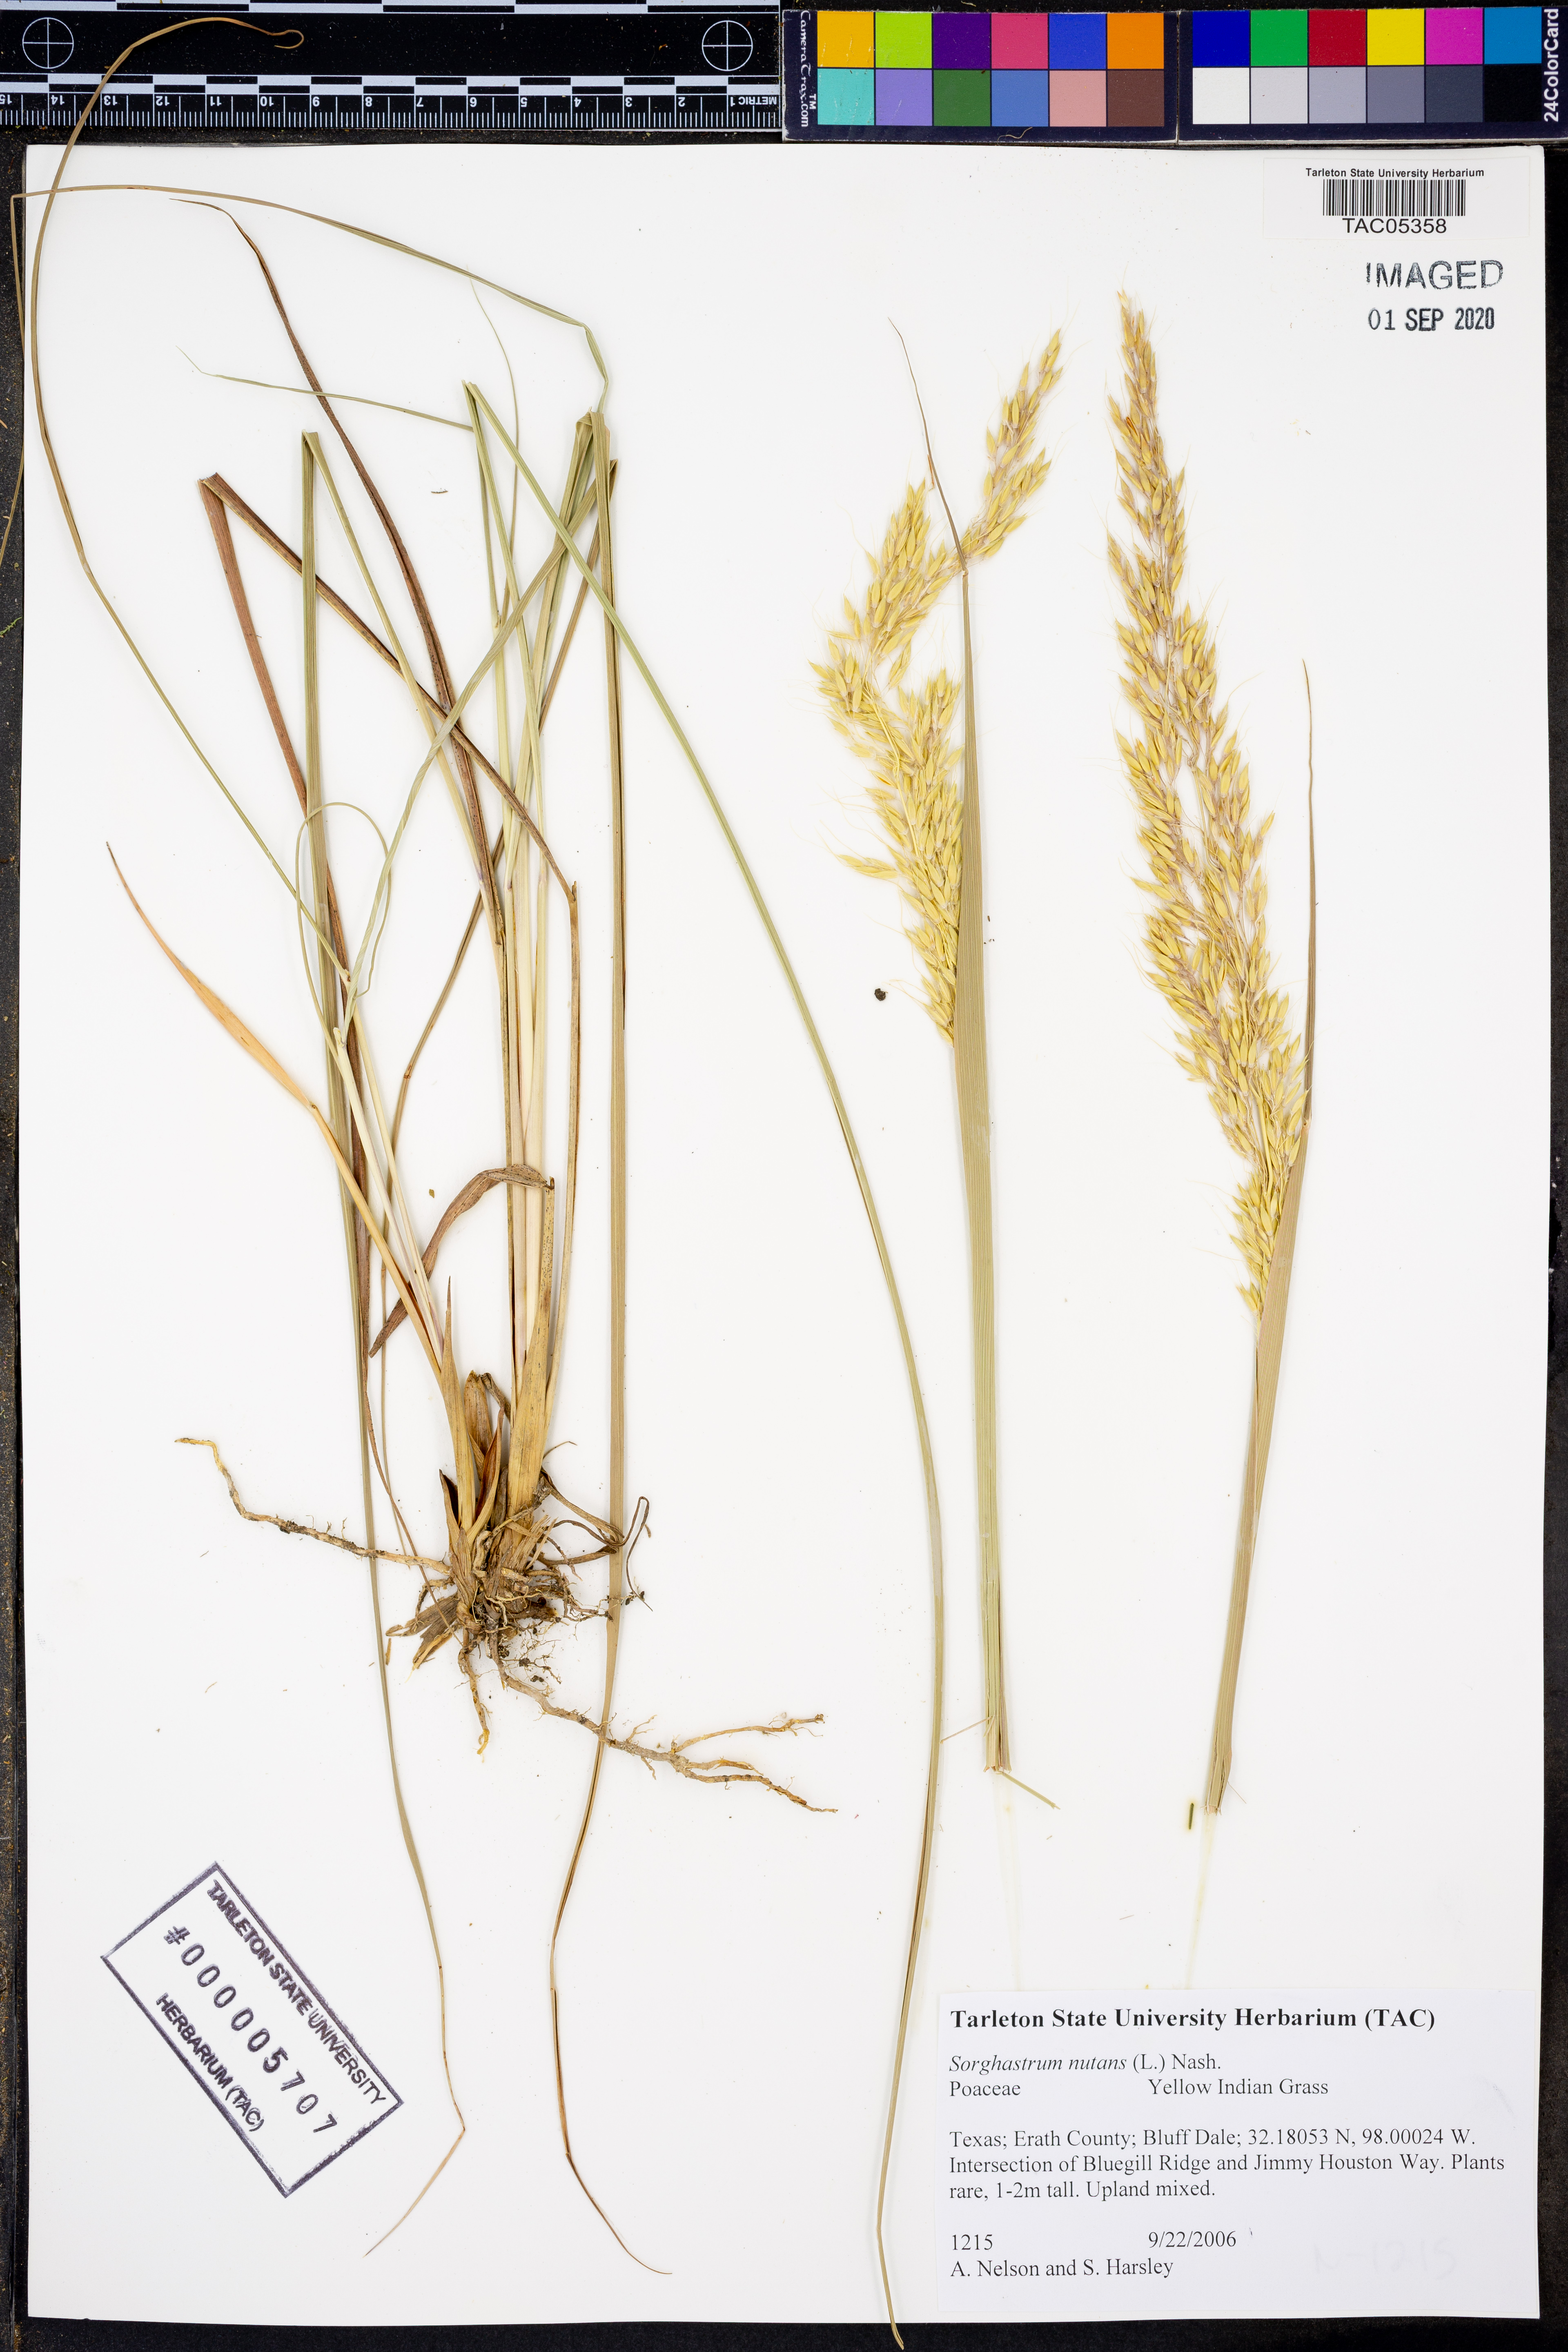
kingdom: Plantae
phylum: Tracheophyta
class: Liliopsida
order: Poales
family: Poaceae
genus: Sorghastrum
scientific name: Sorghastrum nutans
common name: Indian grass
